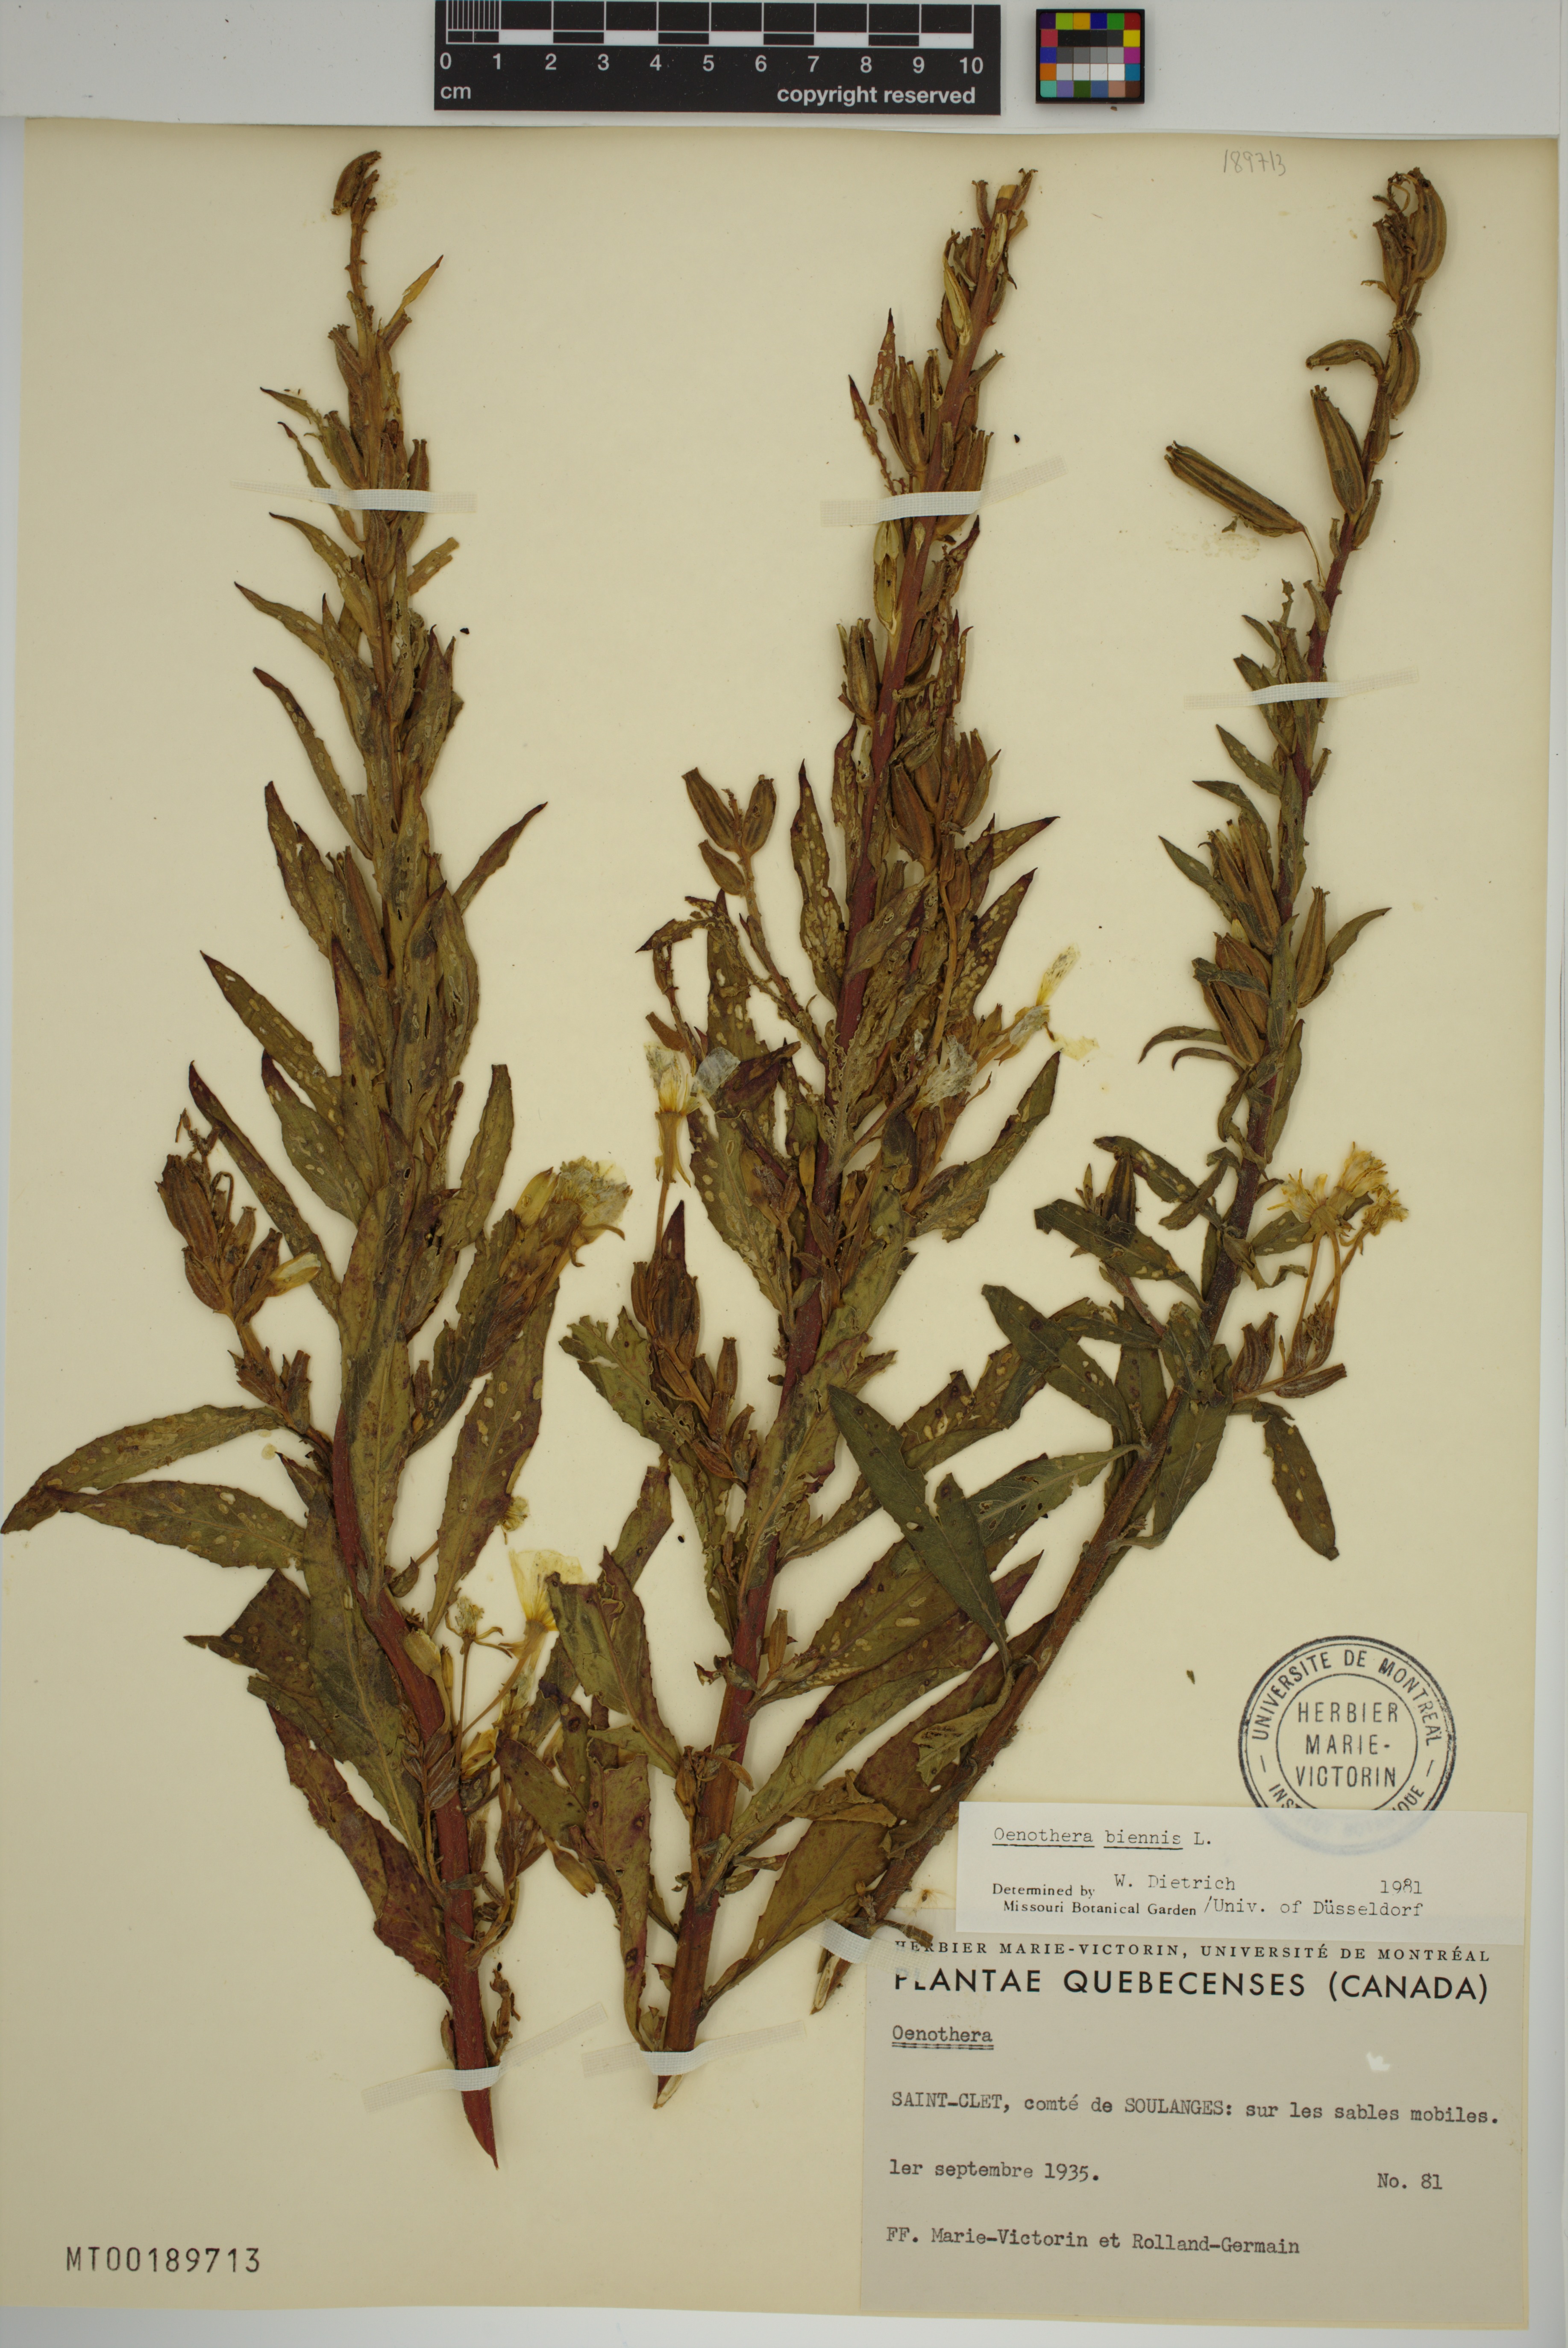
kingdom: Plantae
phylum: Tracheophyta
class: Magnoliopsida
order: Myrtales
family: Onagraceae
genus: Oenothera
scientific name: Oenothera biennis
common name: Common evening-primrose
